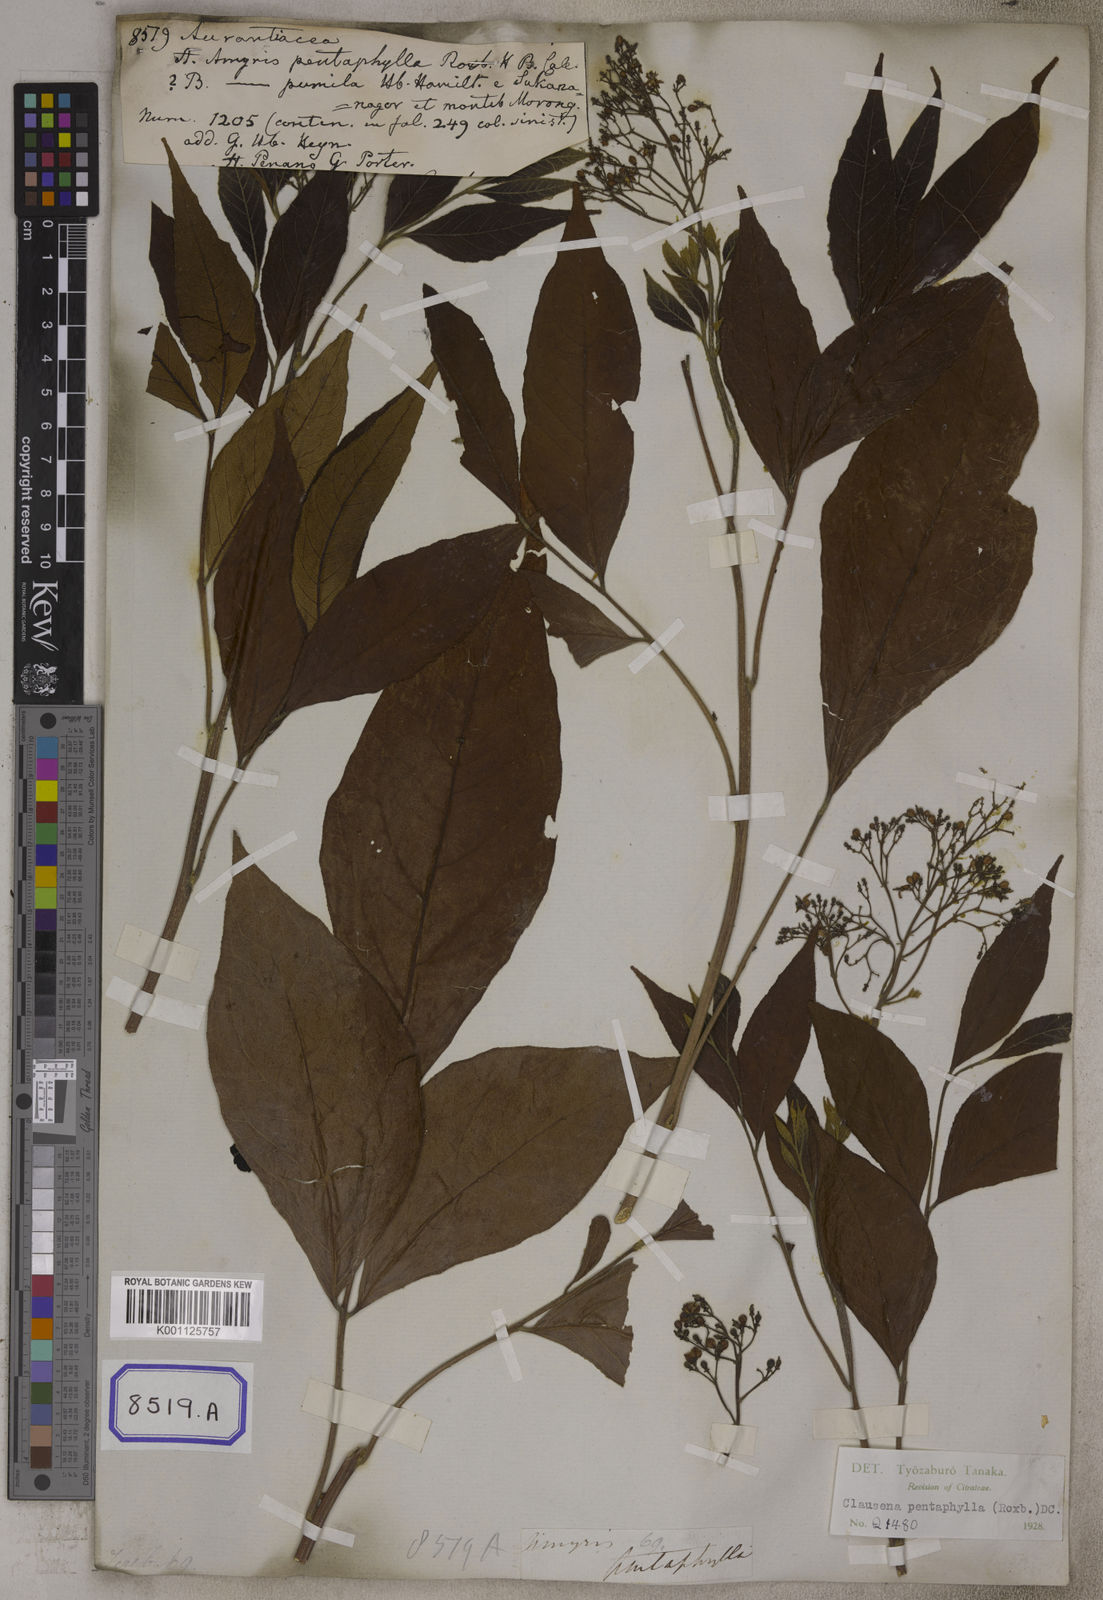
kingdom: Plantae
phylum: Tracheophyta
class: Magnoliopsida
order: Sapindales
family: Rutaceae
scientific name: Rutaceae
